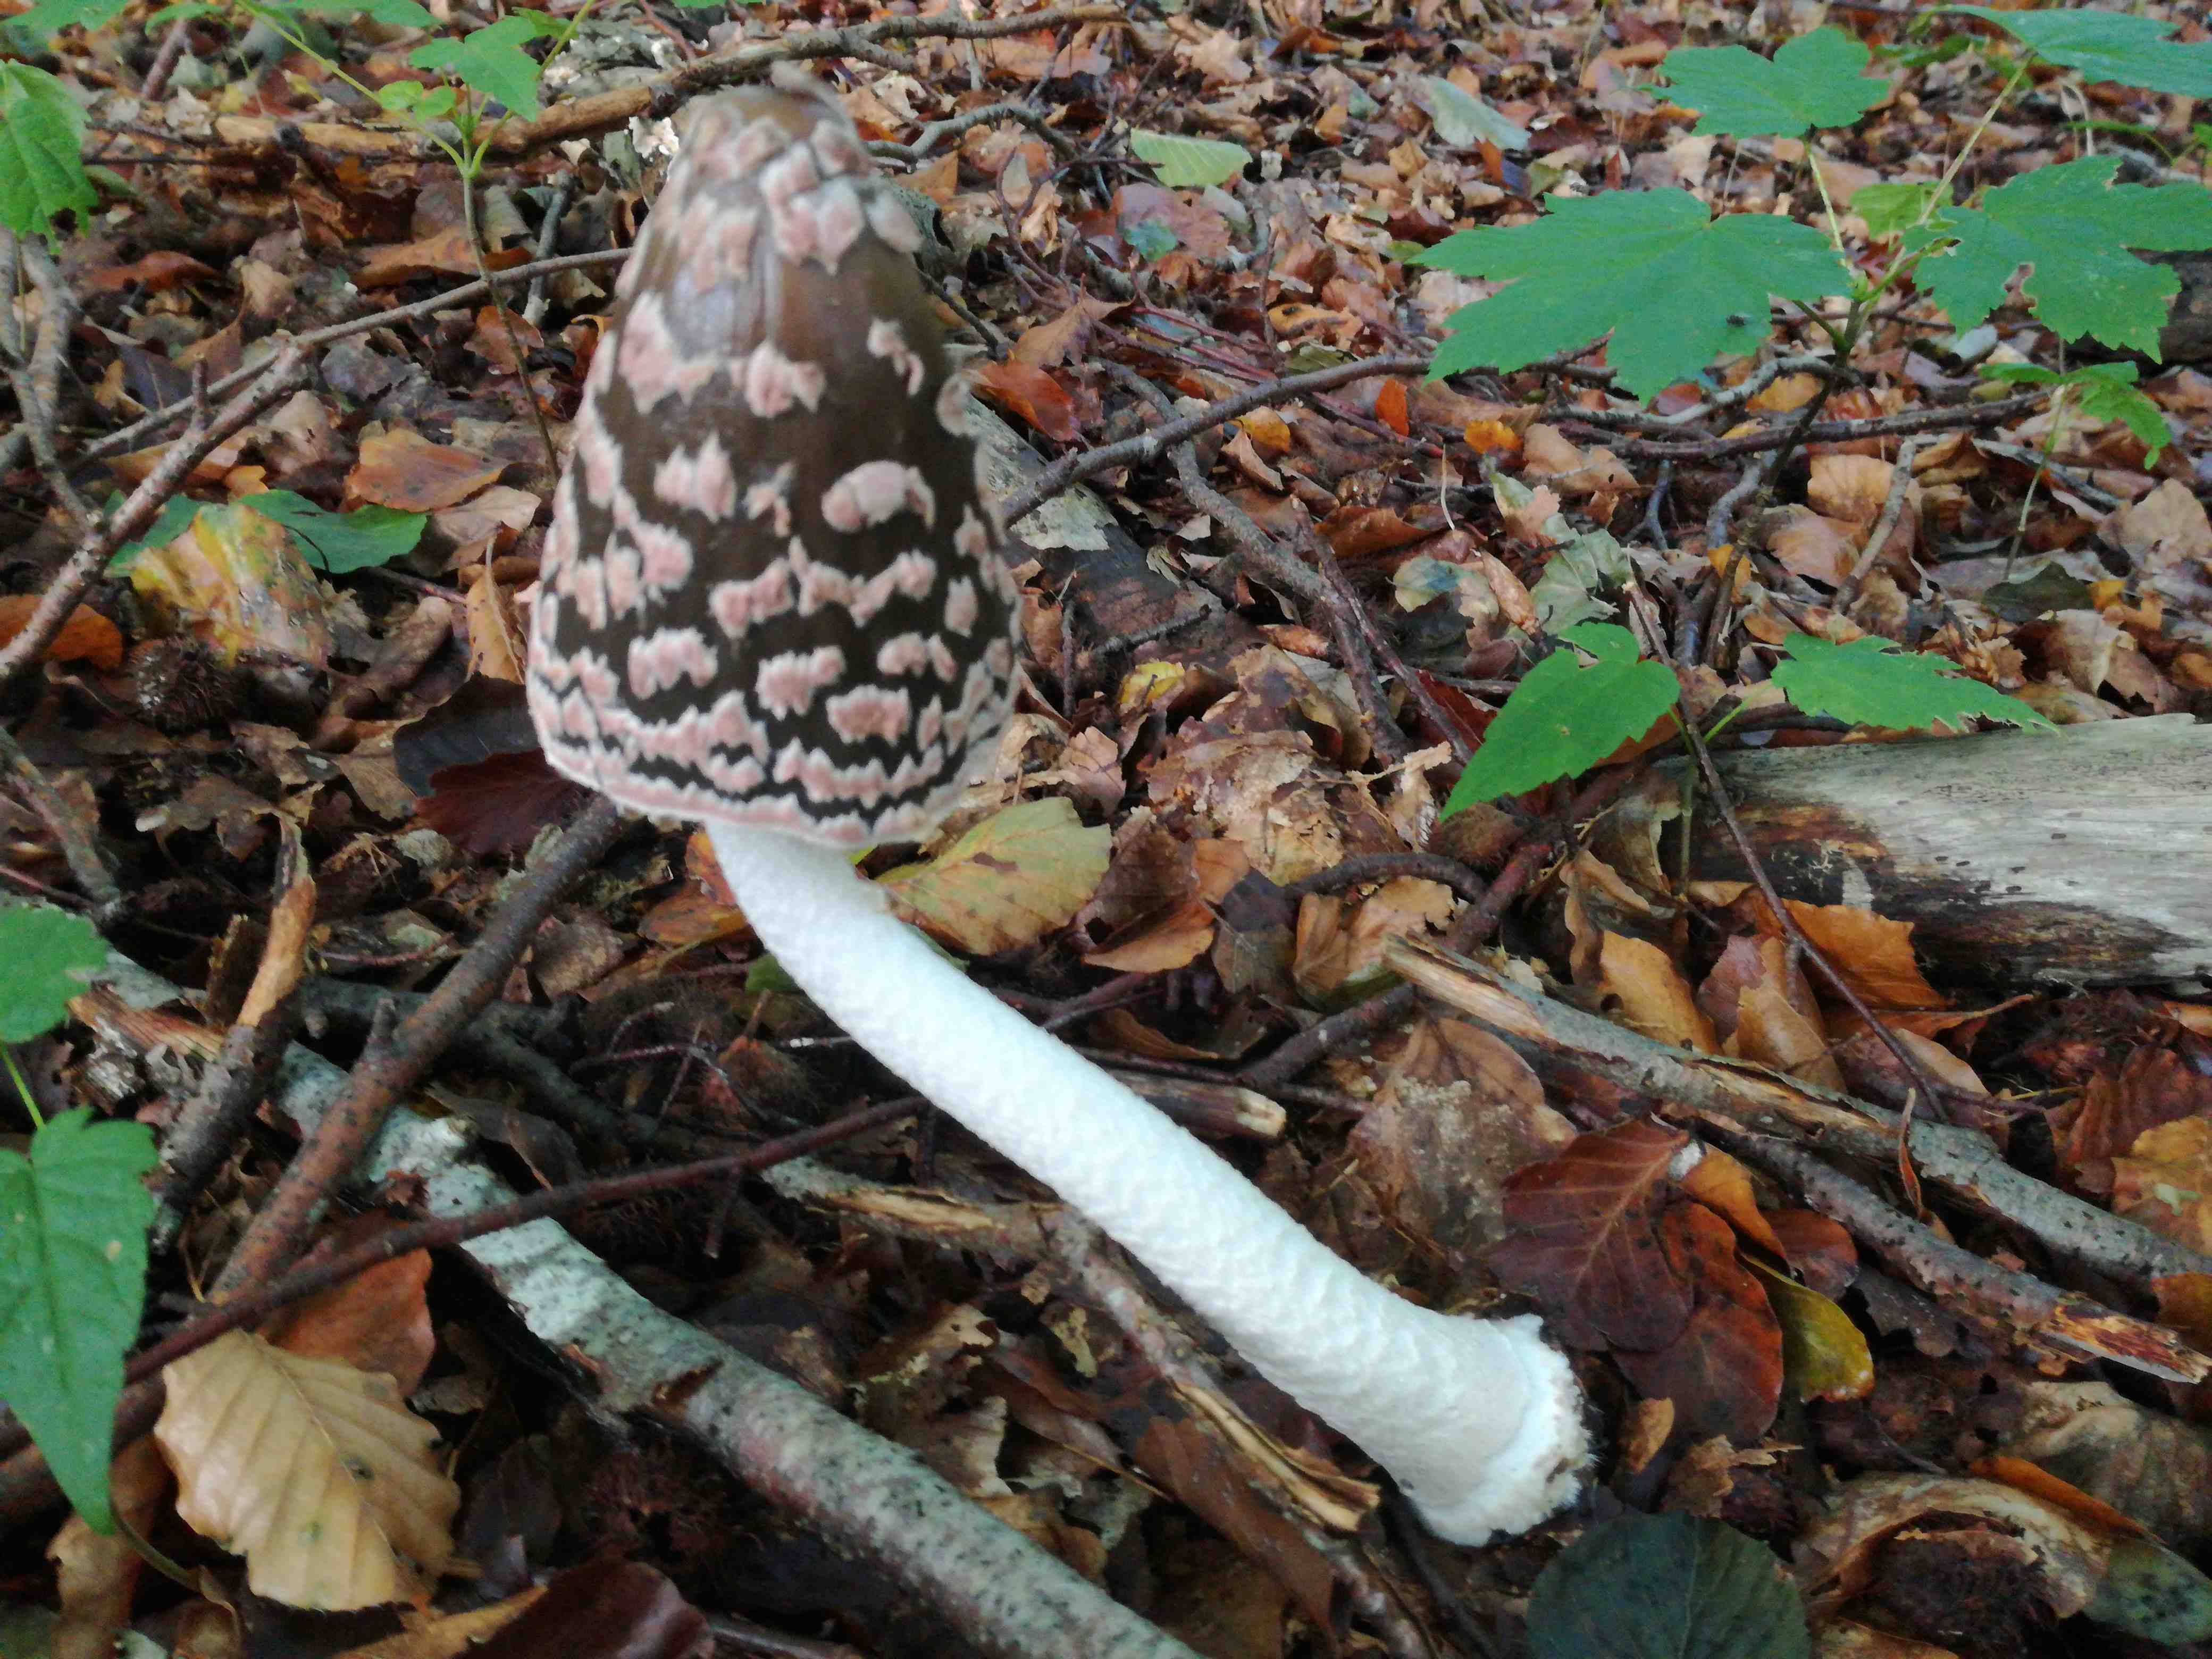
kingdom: Fungi
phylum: Basidiomycota
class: Agaricomycetes
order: Agaricales
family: Psathyrellaceae
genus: Coprinopsis
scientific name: Coprinopsis picacea
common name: skade-blækhat
